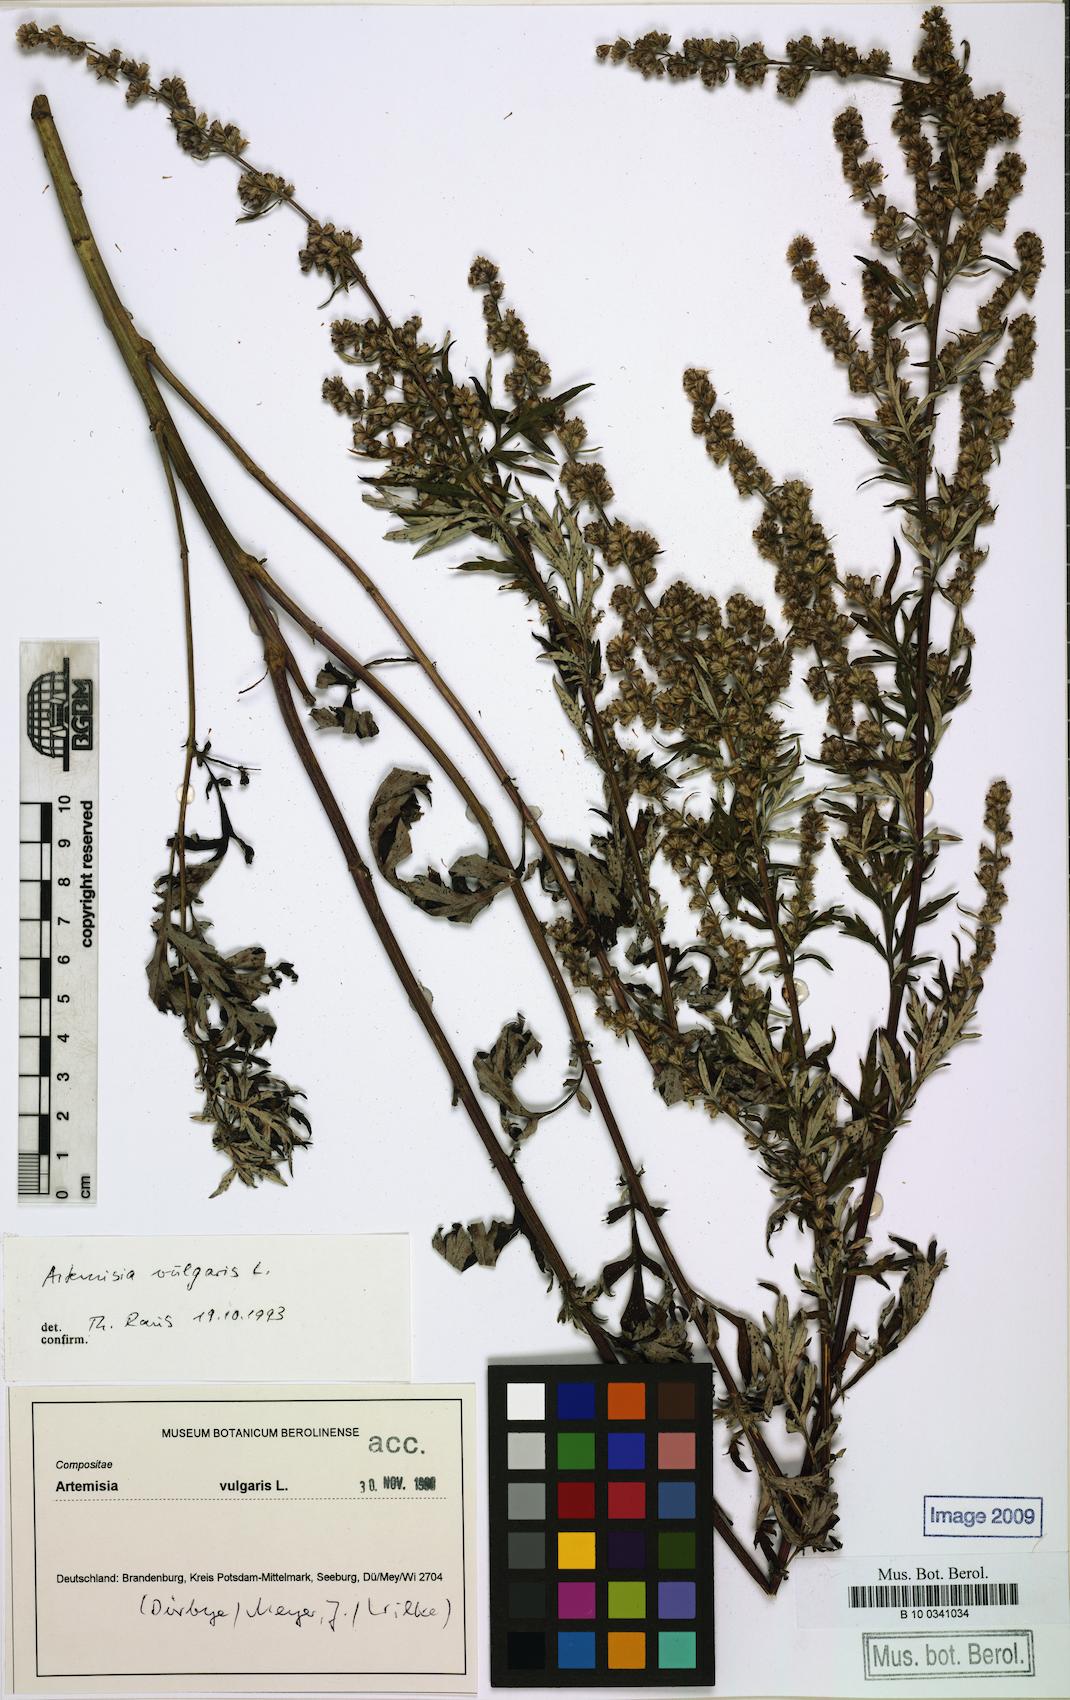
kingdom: Plantae
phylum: Tracheophyta
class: Magnoliopsida
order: Asterales
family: Asteraceae
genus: Artemisia
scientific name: Artemisia vulgaris
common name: Mugwort
